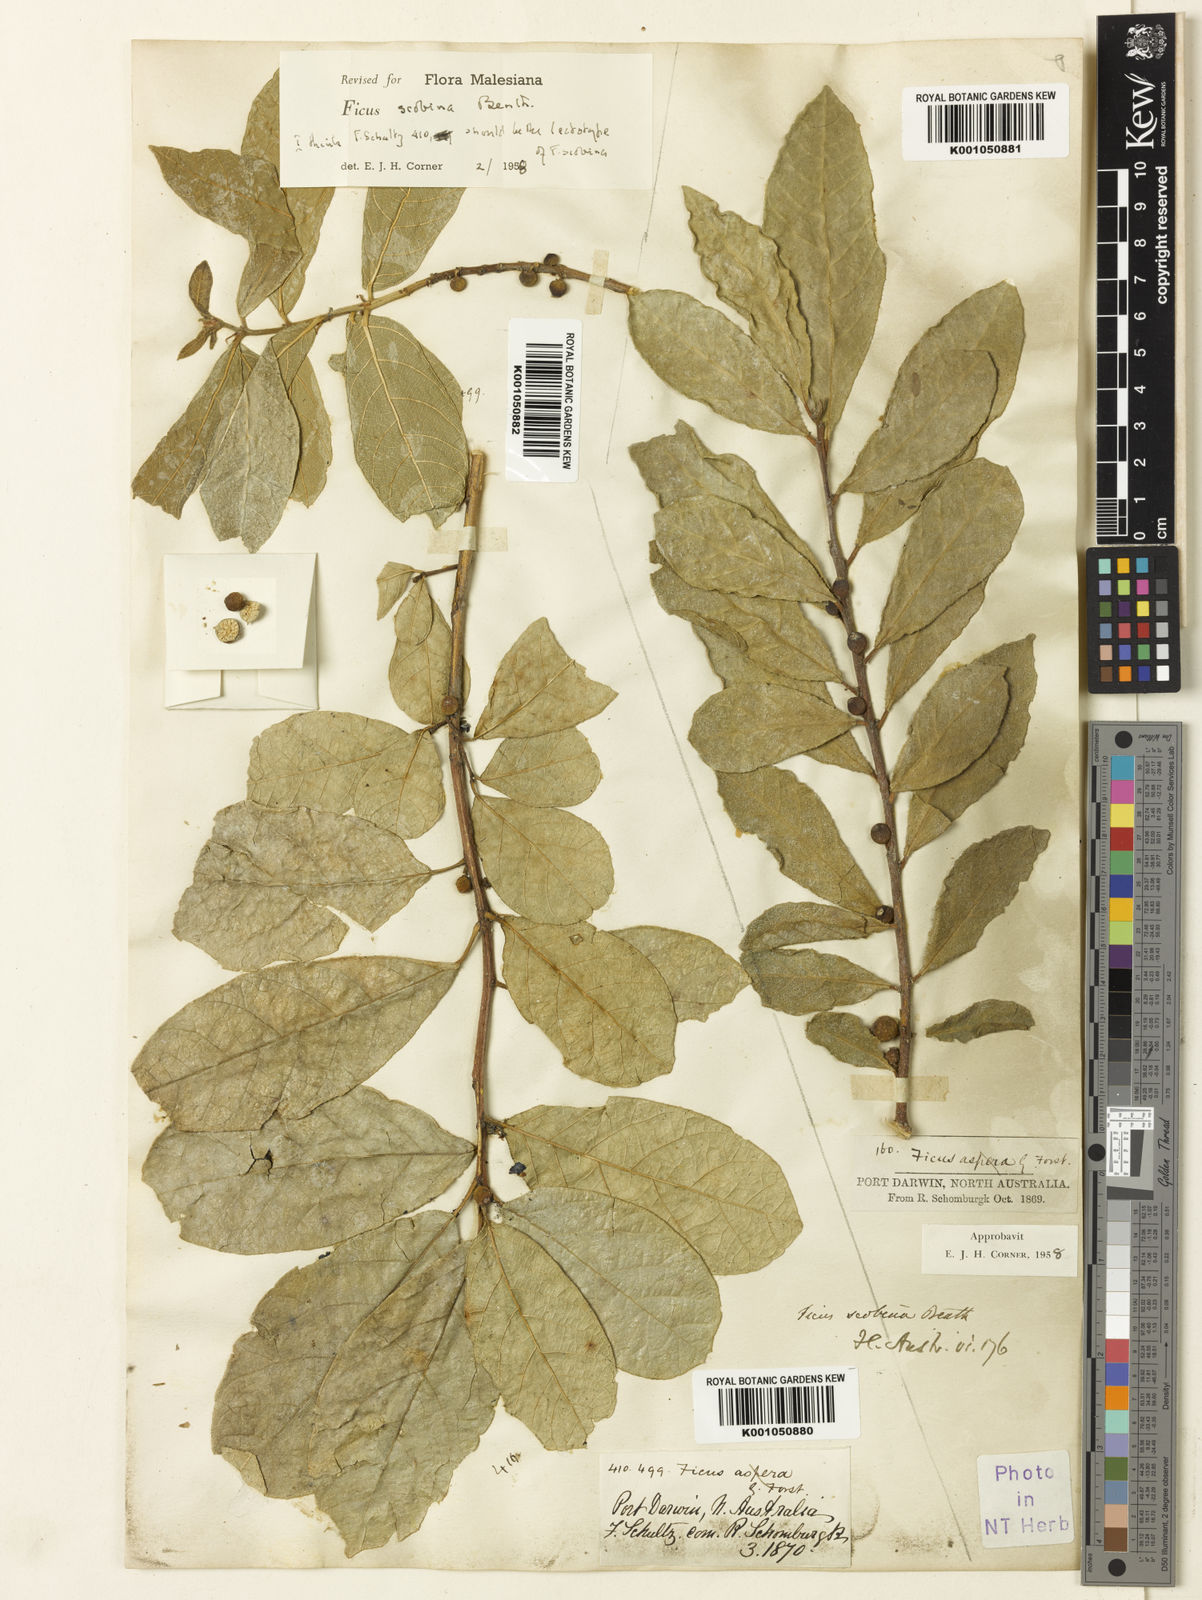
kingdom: Plantae
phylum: Tracheophyta
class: Magnoliopsida
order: Rosales
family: Moraceae
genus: Ficus
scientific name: Ficus scobina
